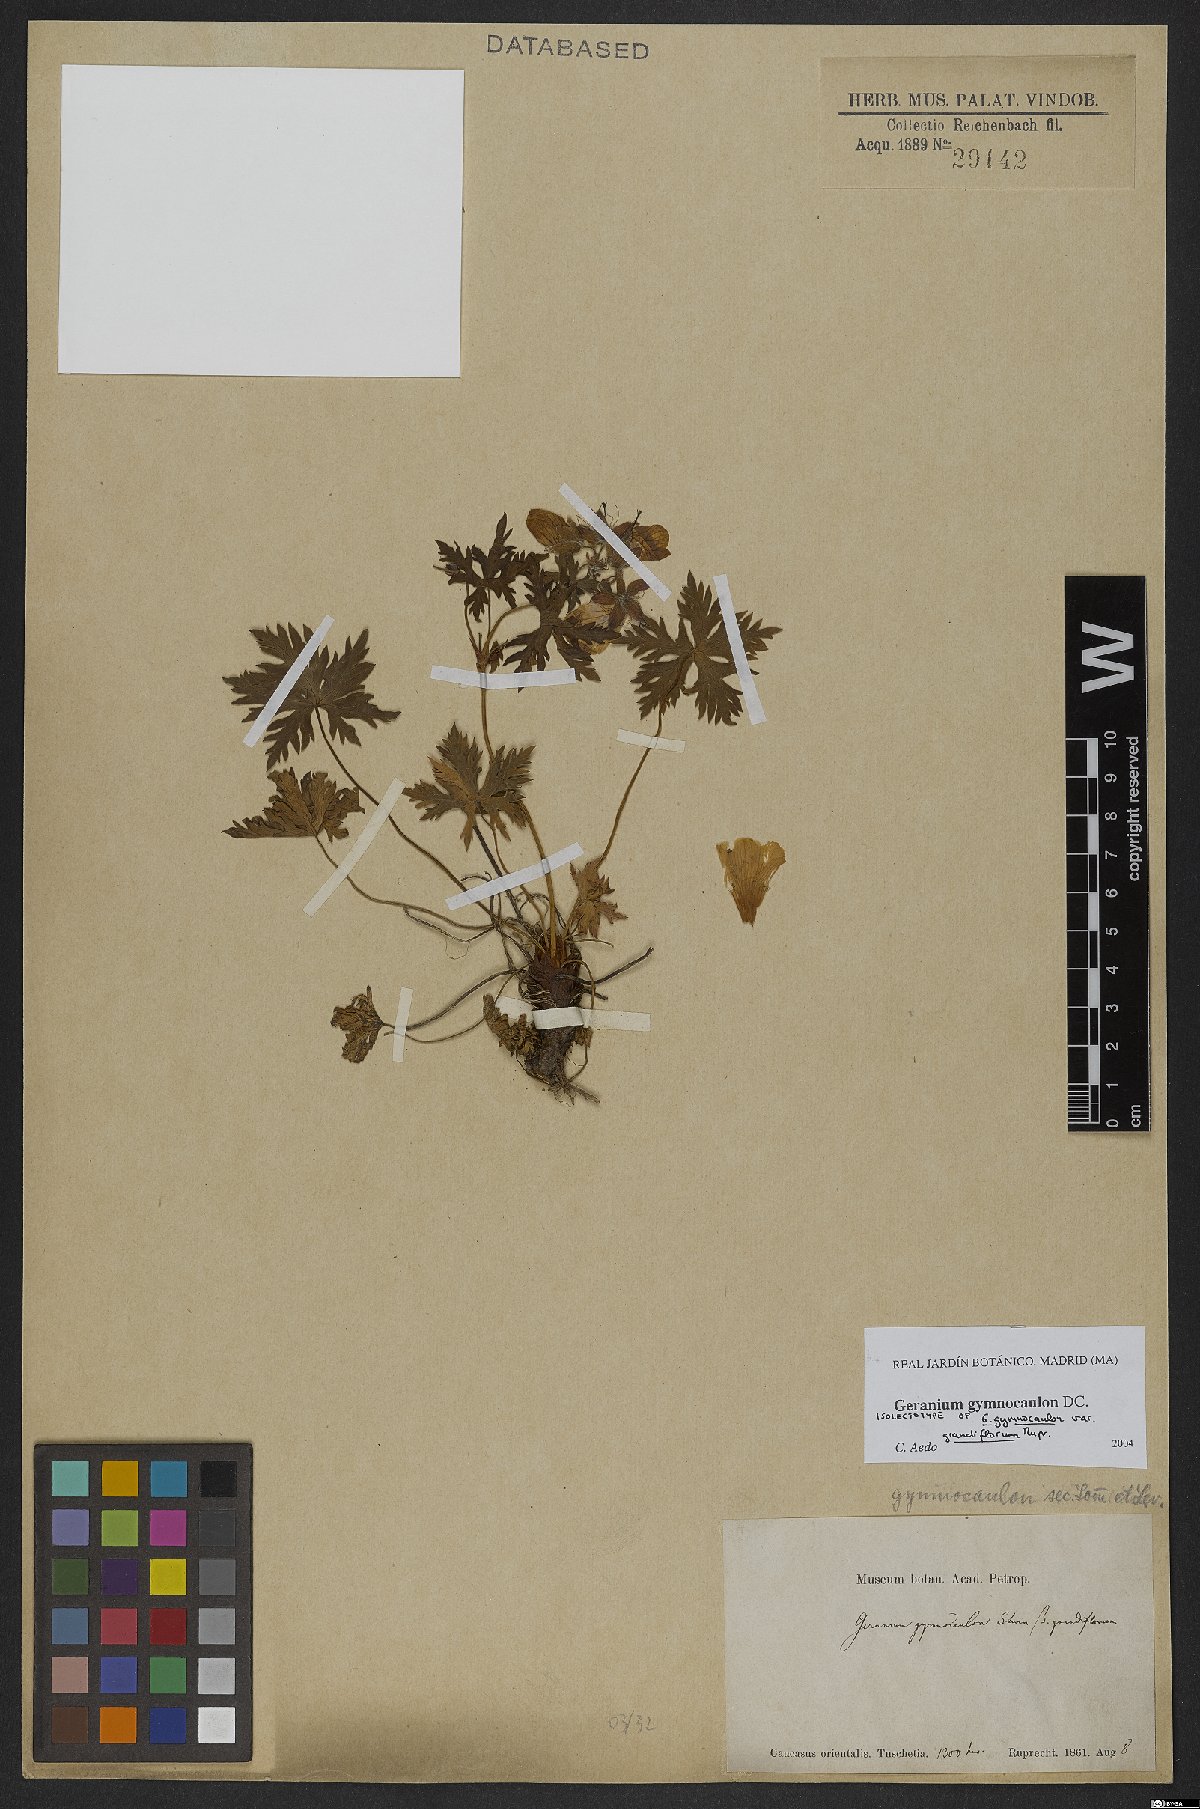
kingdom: Plantae
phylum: Tracheophyta
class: Magnoliopsida
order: Geraniales
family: Geraniaceae
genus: Geranium
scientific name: Geranium gymnocaulon
